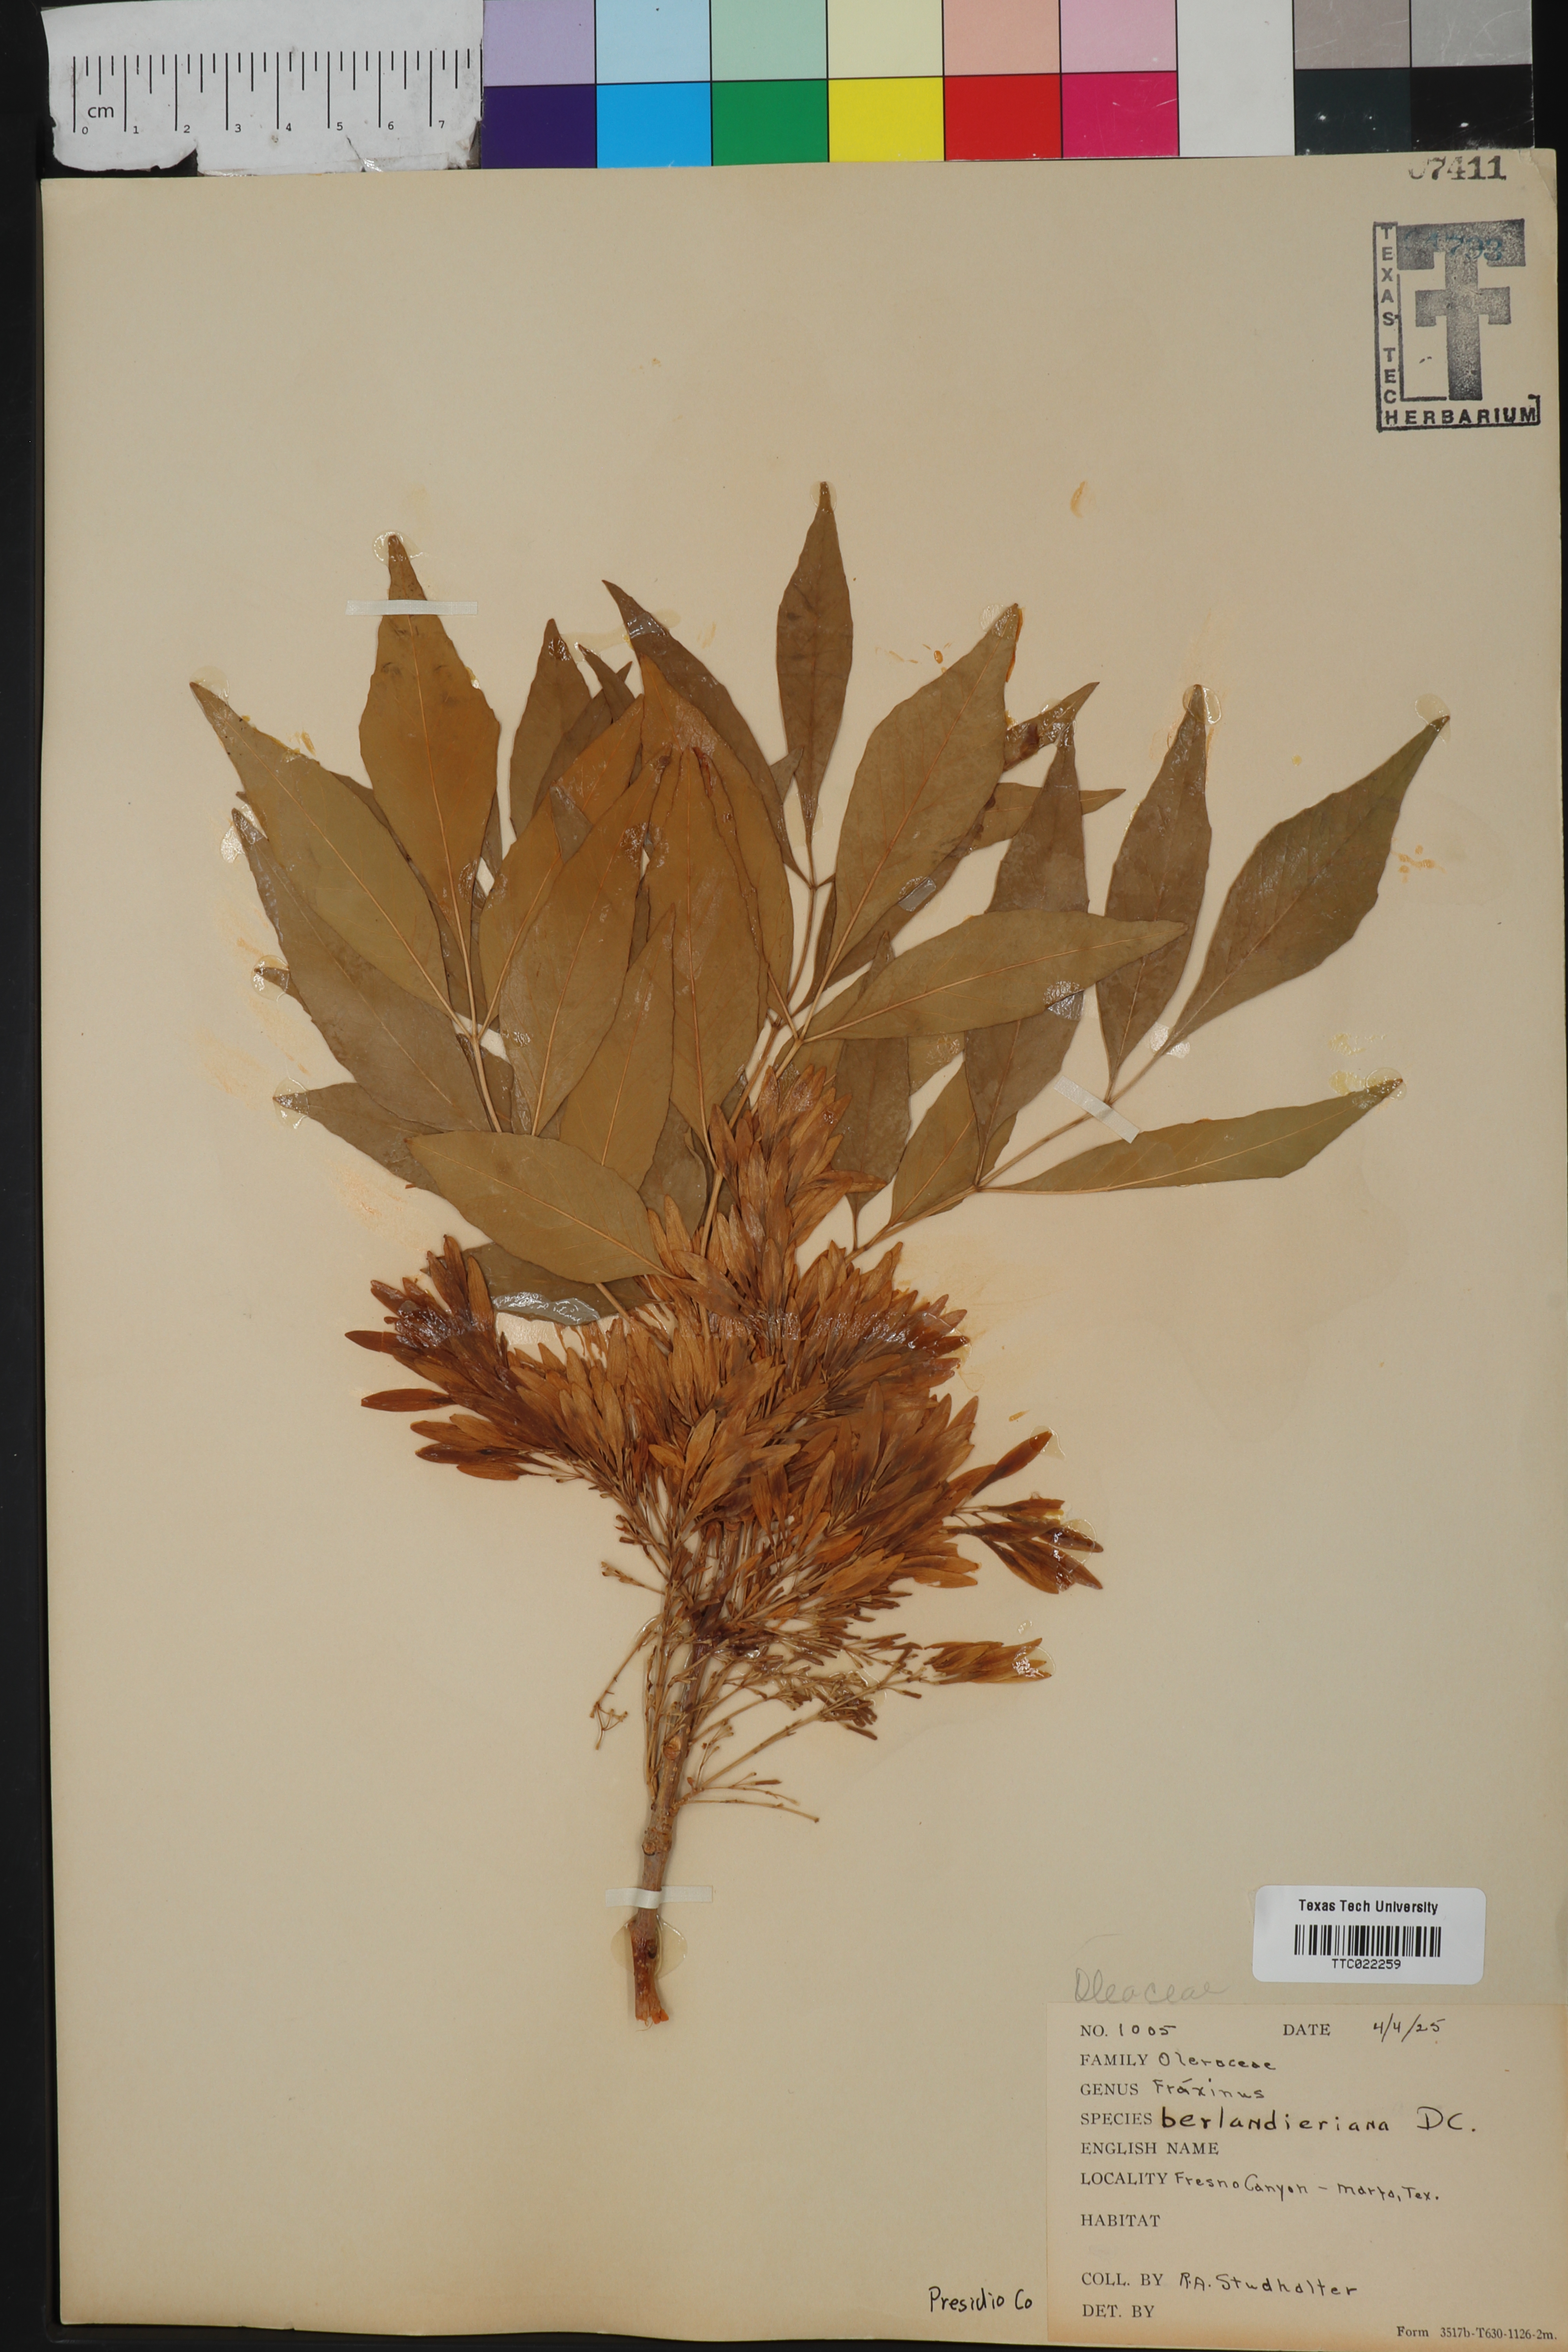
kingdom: Plantae
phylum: Tracheophyta
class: Magnoliopsida
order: Lamiales
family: Oleaceae
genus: Fraxinus
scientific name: Fraxinus berlandieriana
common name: Berlandier ash
